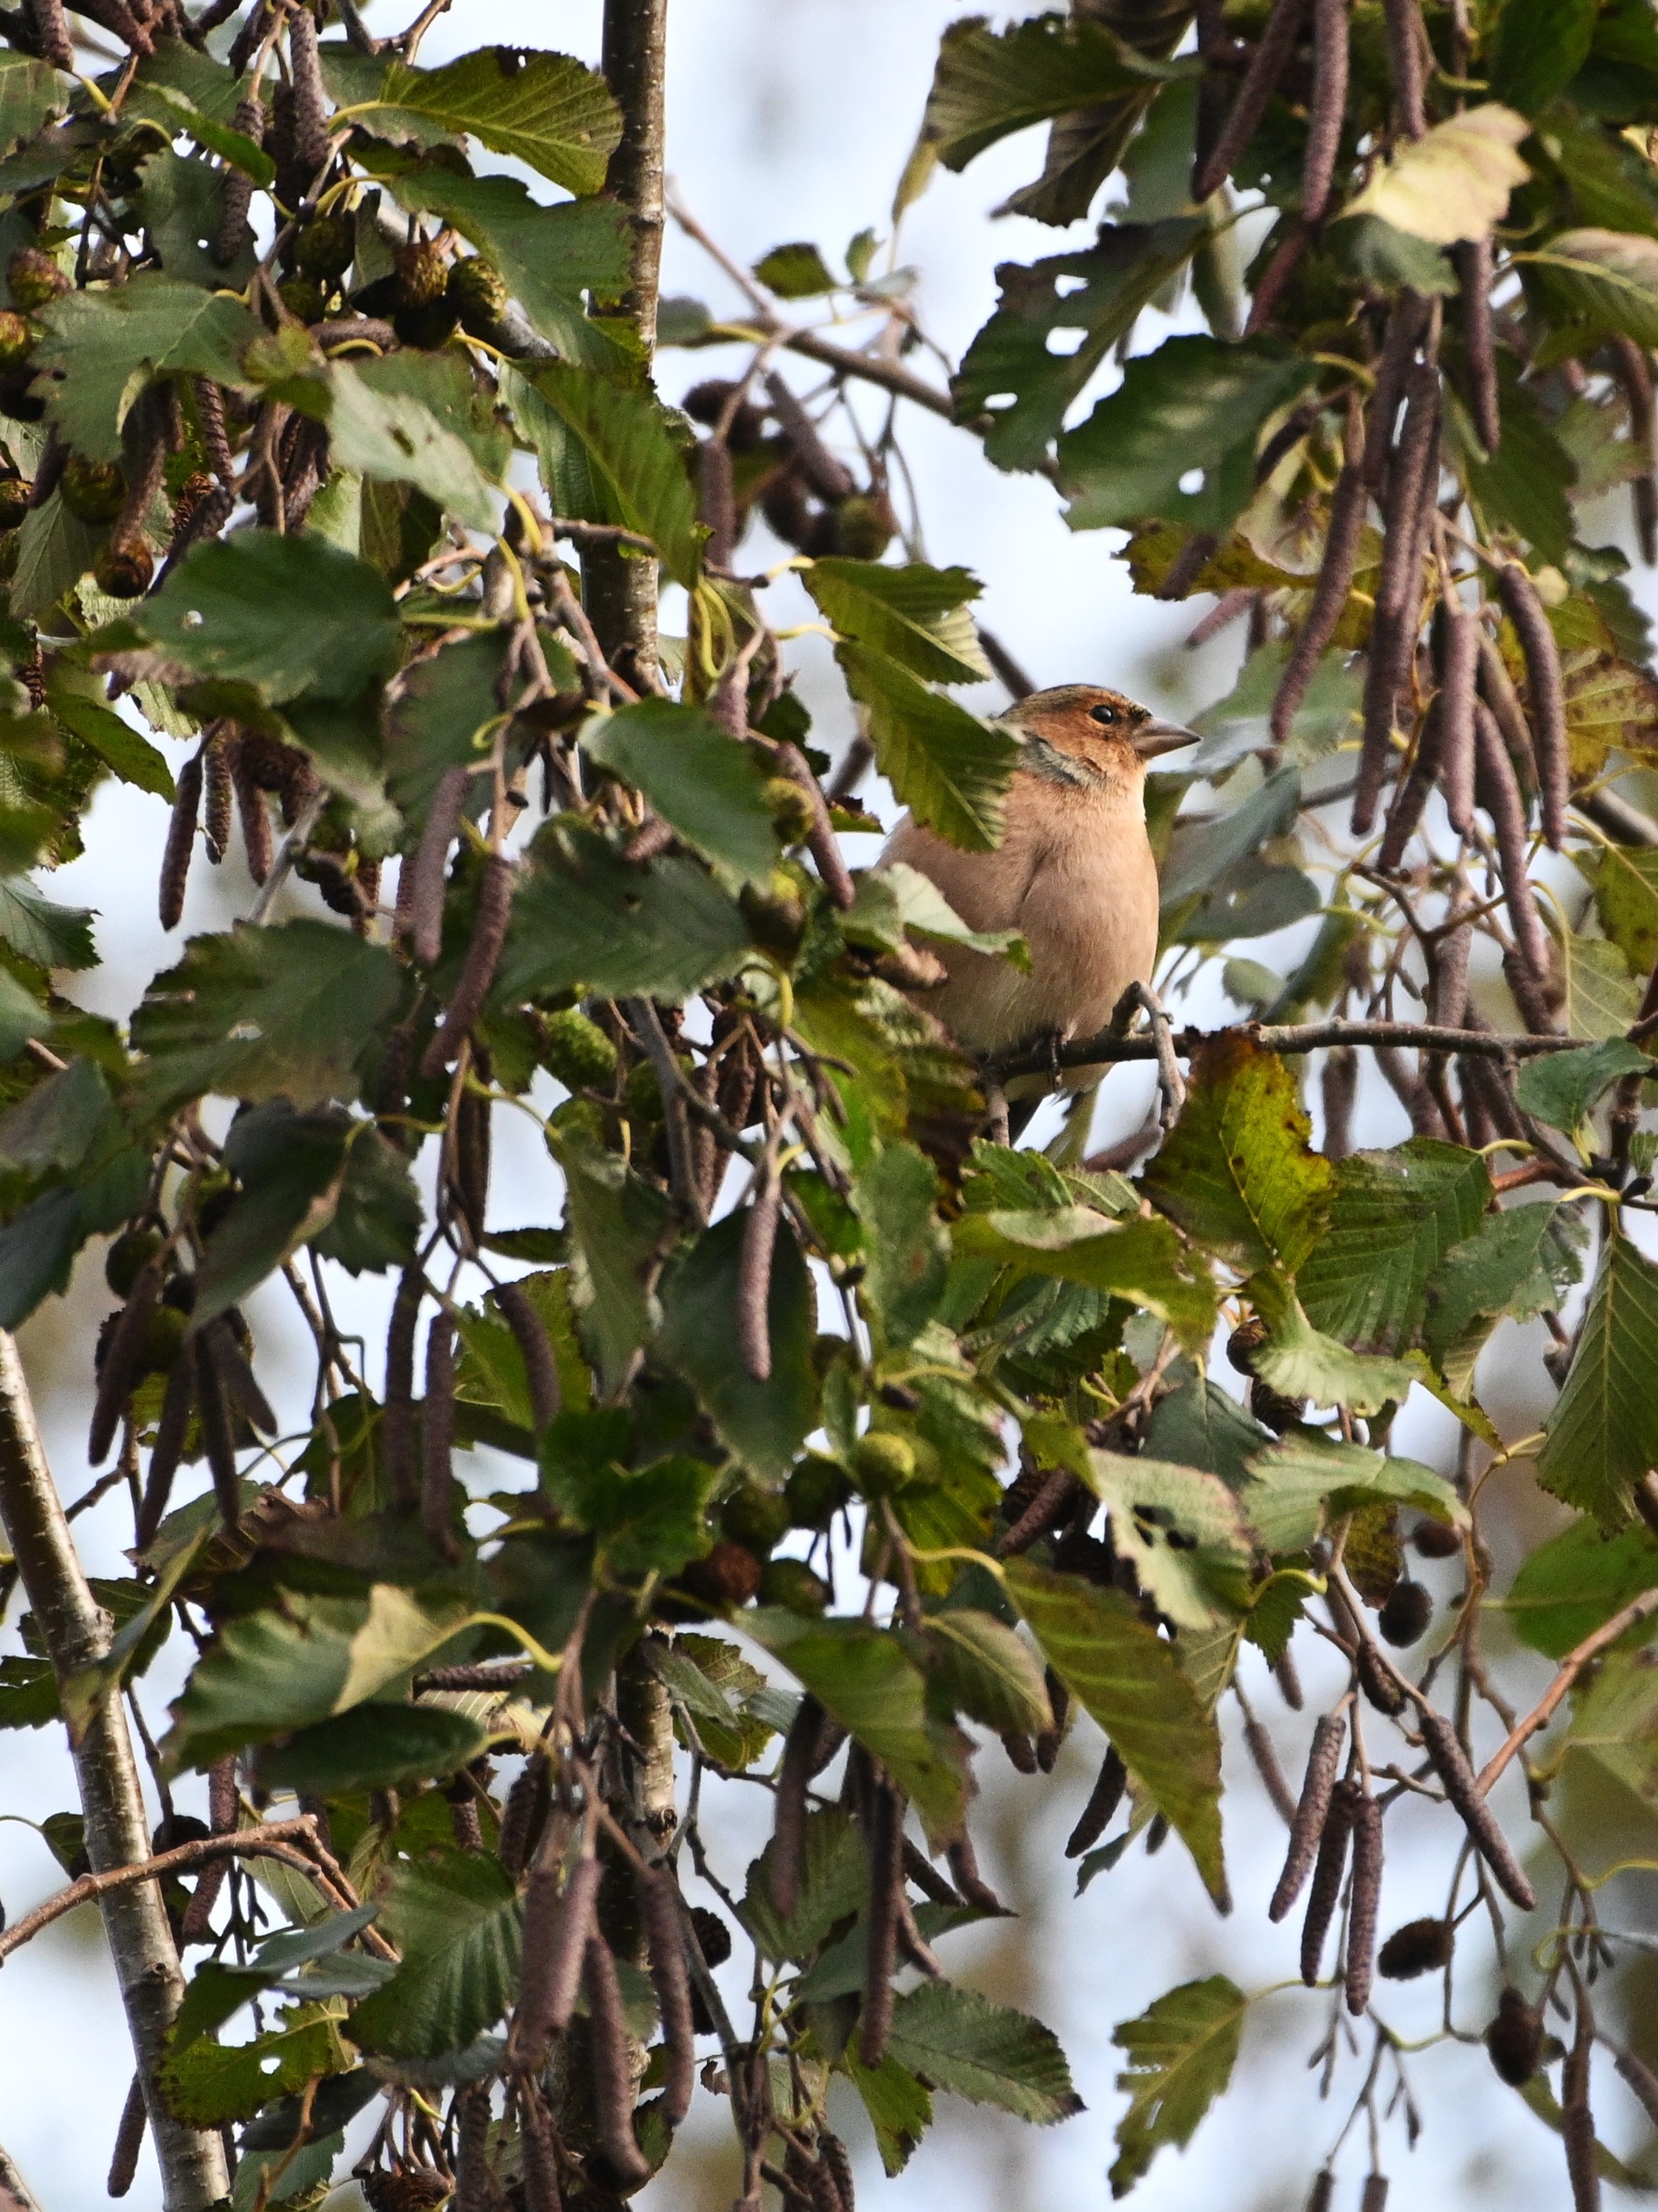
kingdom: Animalia
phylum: Chordata
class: Aves
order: Passeriformes
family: Fringillidae
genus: Fringilla
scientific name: Fringilla coelebs
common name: Bogfinke
